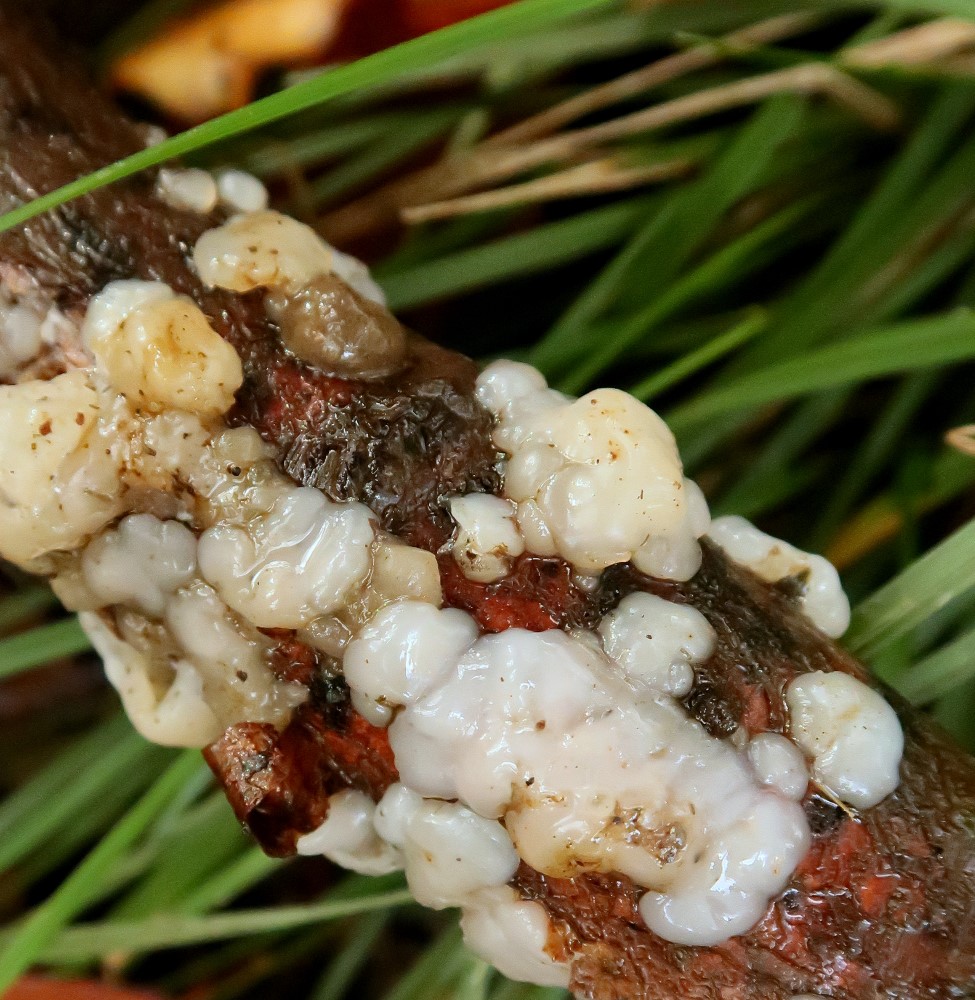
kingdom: Fungi
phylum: Basidiomycota
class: Agaricomycetes
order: Auriculariales
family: Auriculariaceae
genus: Exidia
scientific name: Exidia thuretiana
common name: hvidlig bævretop
